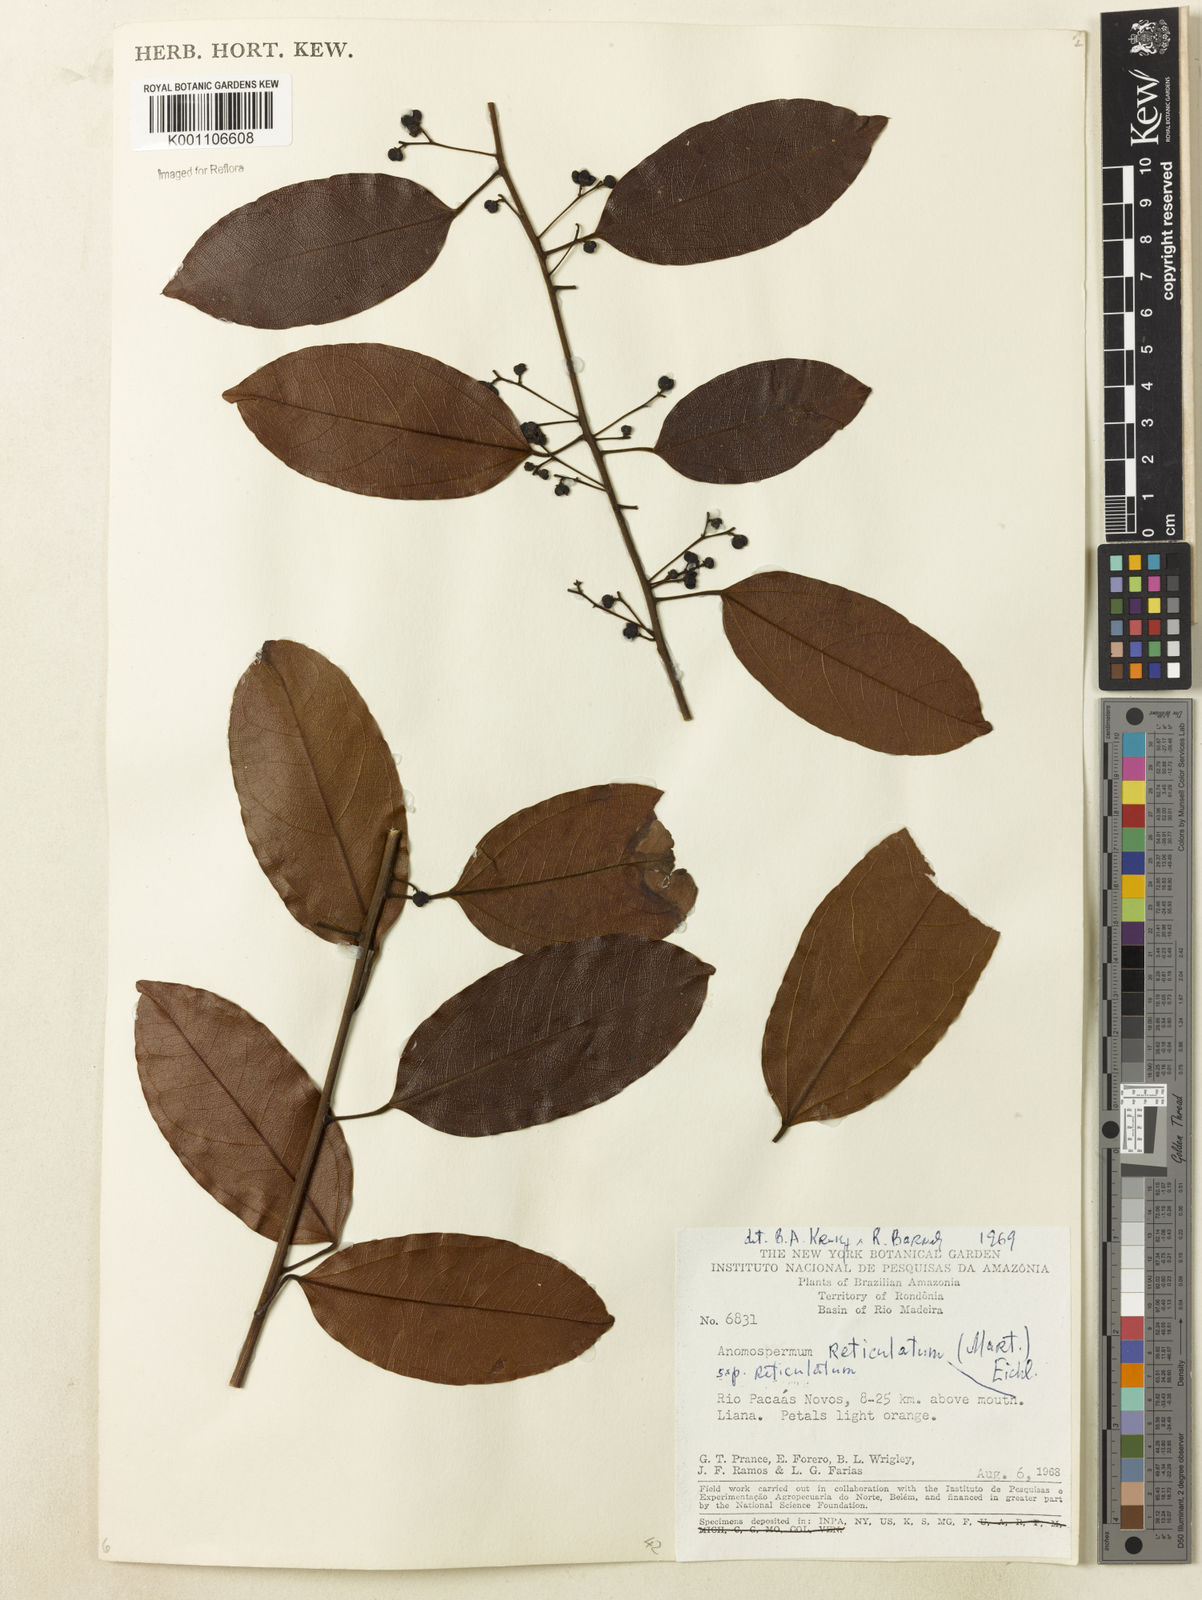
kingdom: Plantae
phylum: Tracheophyta
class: Magnoliopsida
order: Ranunculales
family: Menispermaceae
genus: Anomospermum
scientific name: Anomospermum reticulatum
